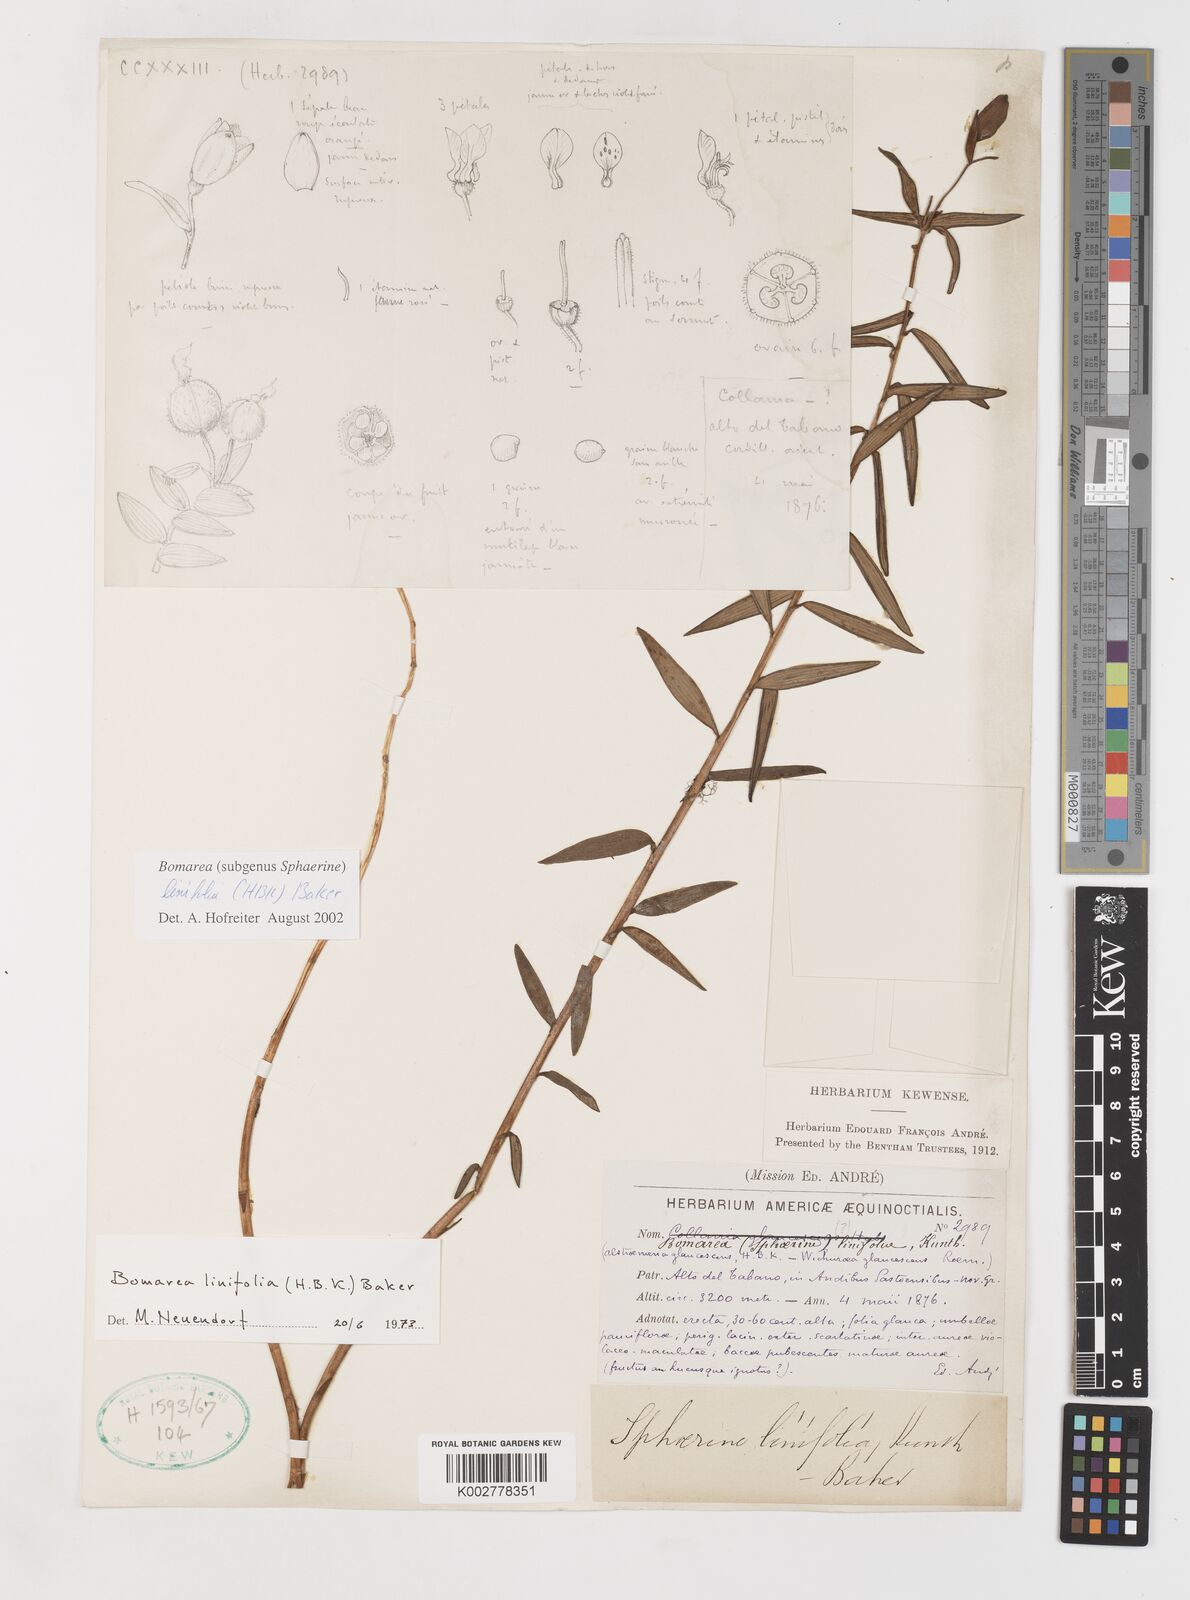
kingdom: Plantae
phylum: Tracheophyta
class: Liliopsida
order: Liliales
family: Alstroemeriaceae
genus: Bomarea
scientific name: Bomarea linifolia
